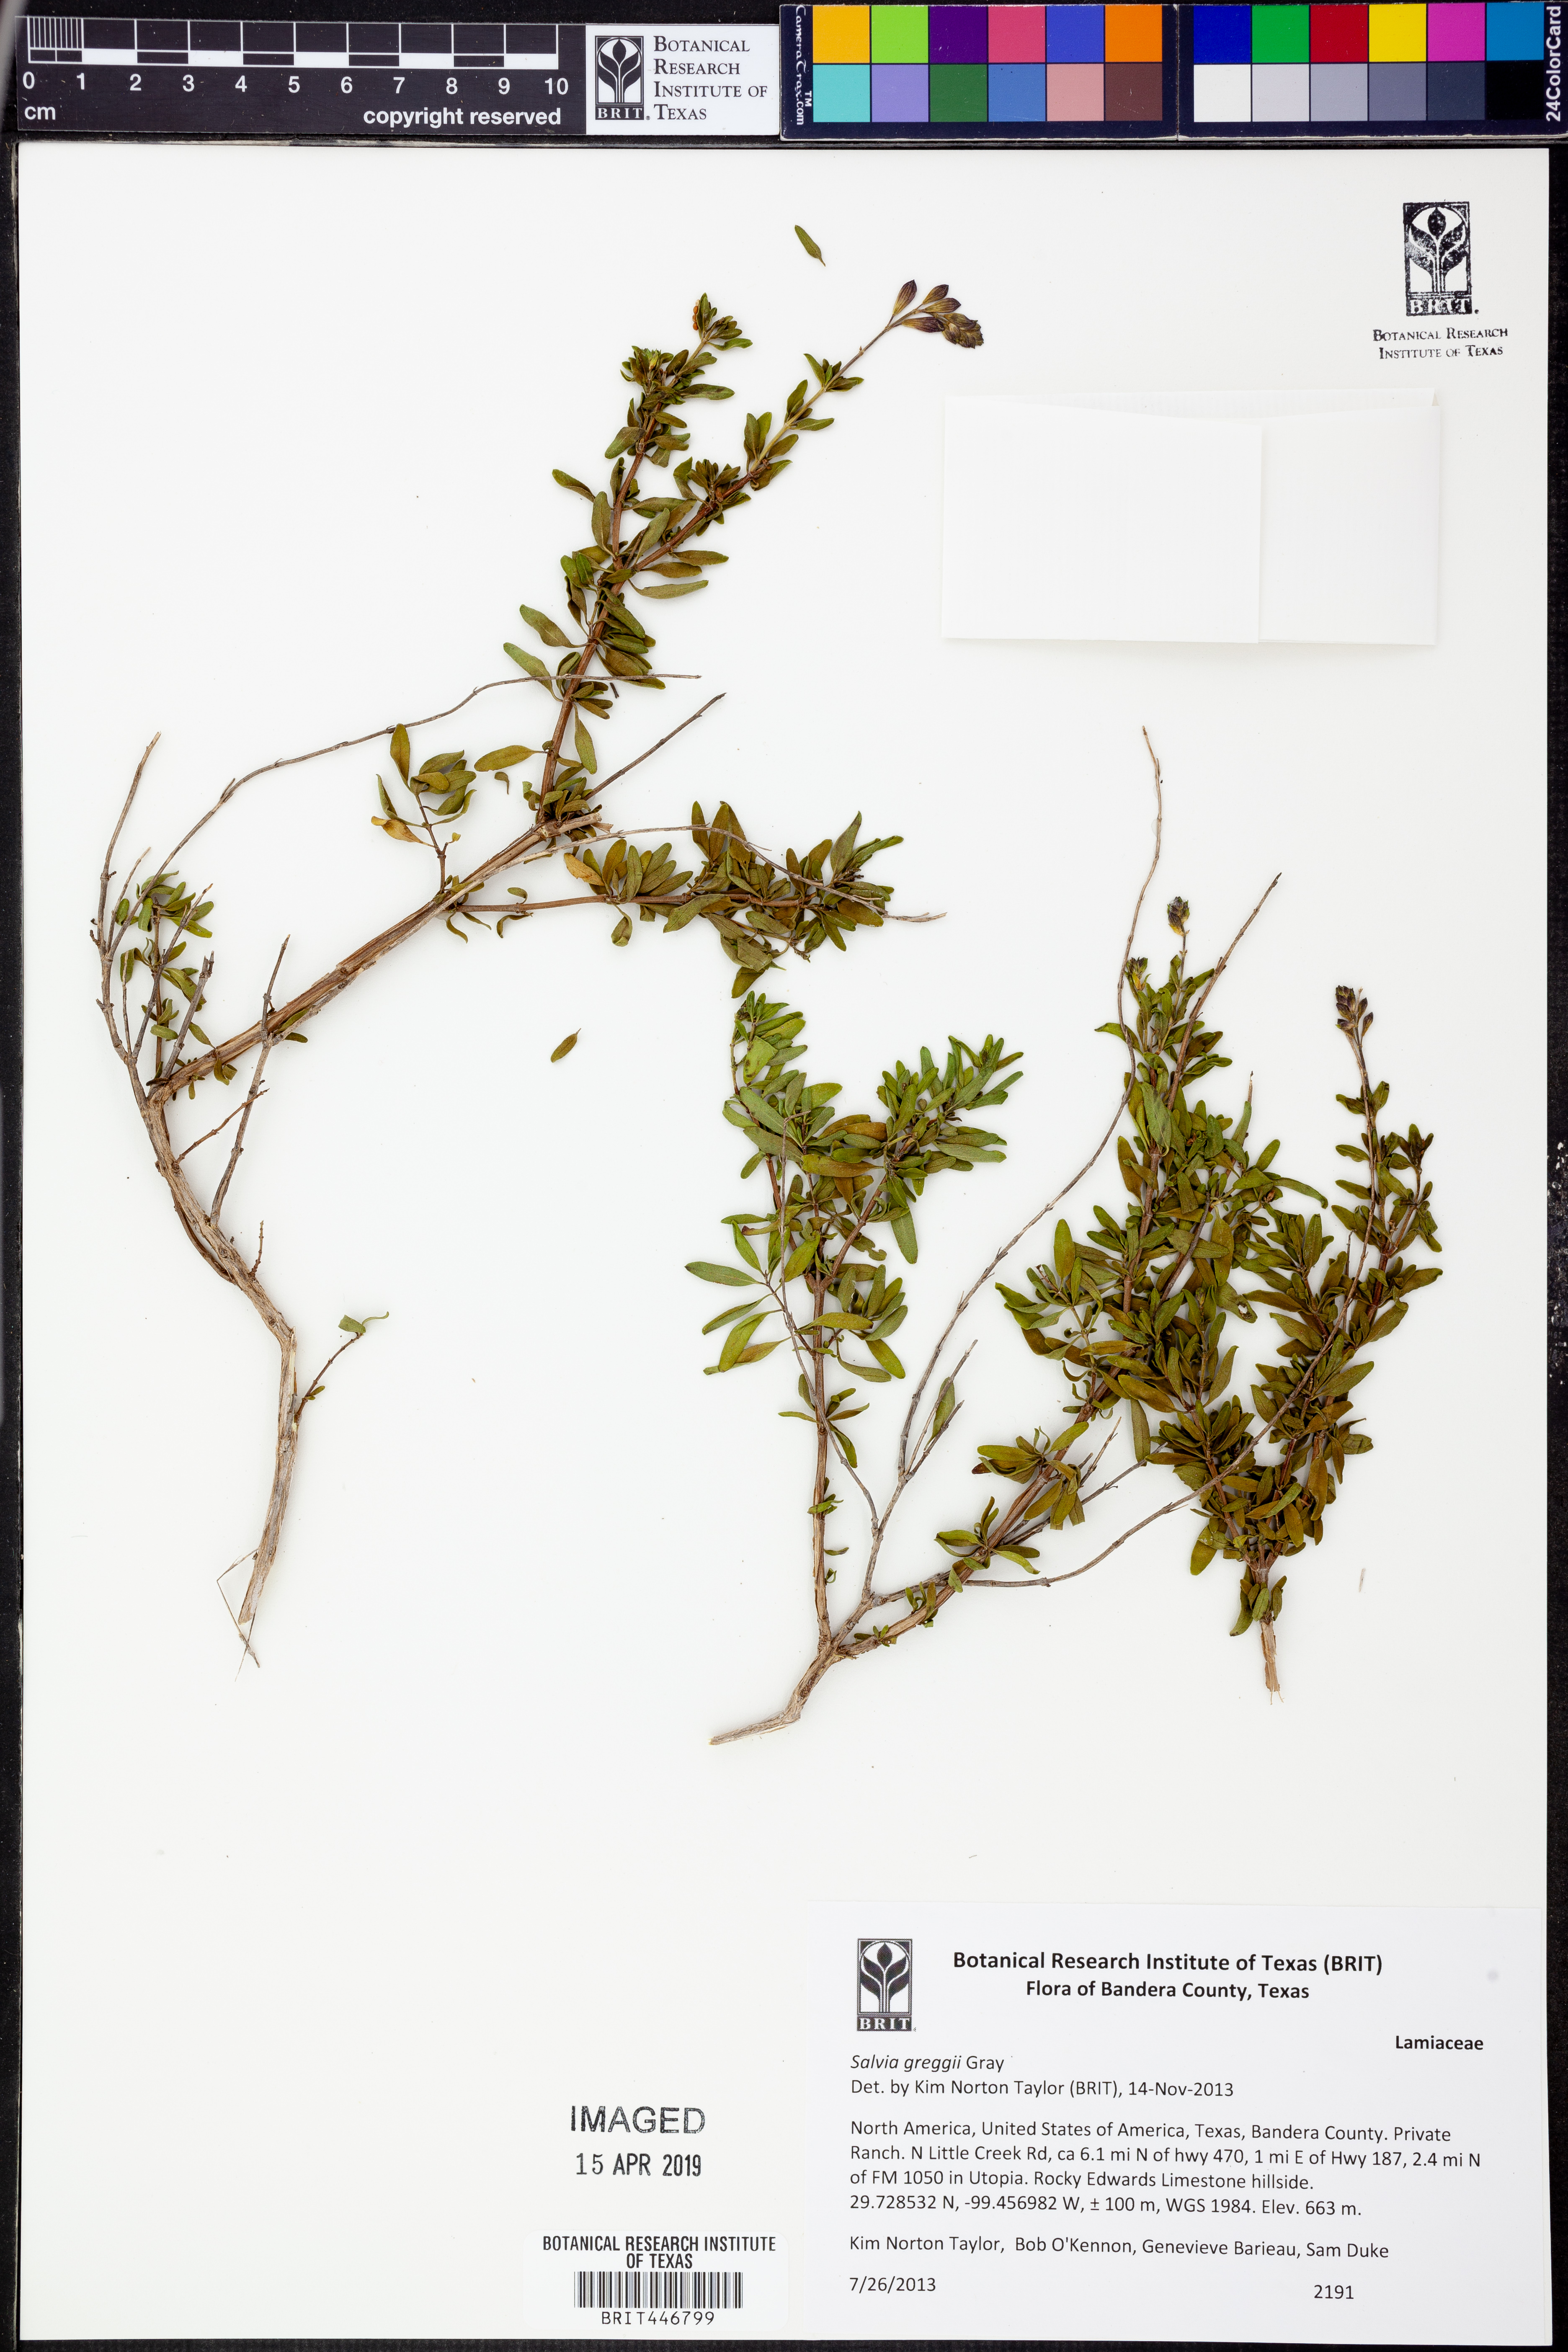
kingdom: Plantae
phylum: Tracheophyta
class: Magnoliopsida
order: Lamiales
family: Lamiaceae
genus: Salvia
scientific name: Salvia greggii
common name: Autumn sage
